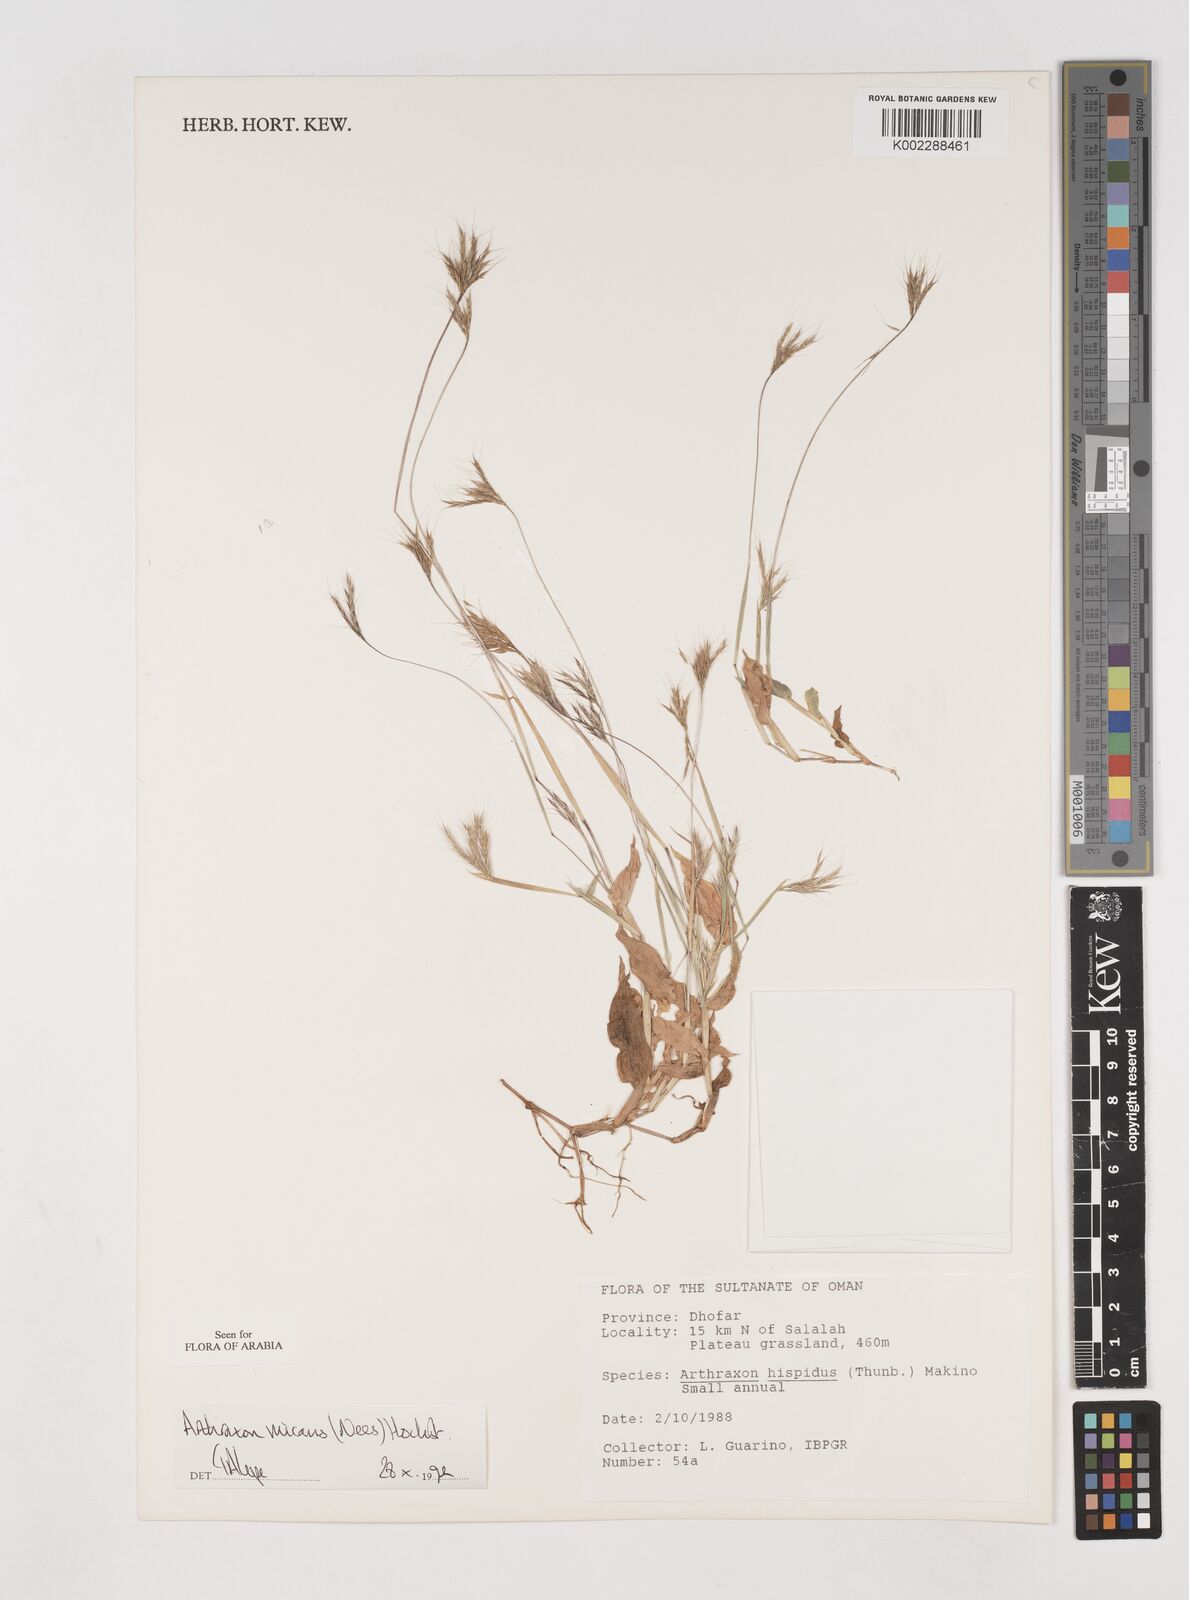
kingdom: Plantae
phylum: Tracheophyta
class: Liliopsida
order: Poales
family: Poaceae
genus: Arthraxon
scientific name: Arthraxon hispidus
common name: Small carpgrass
